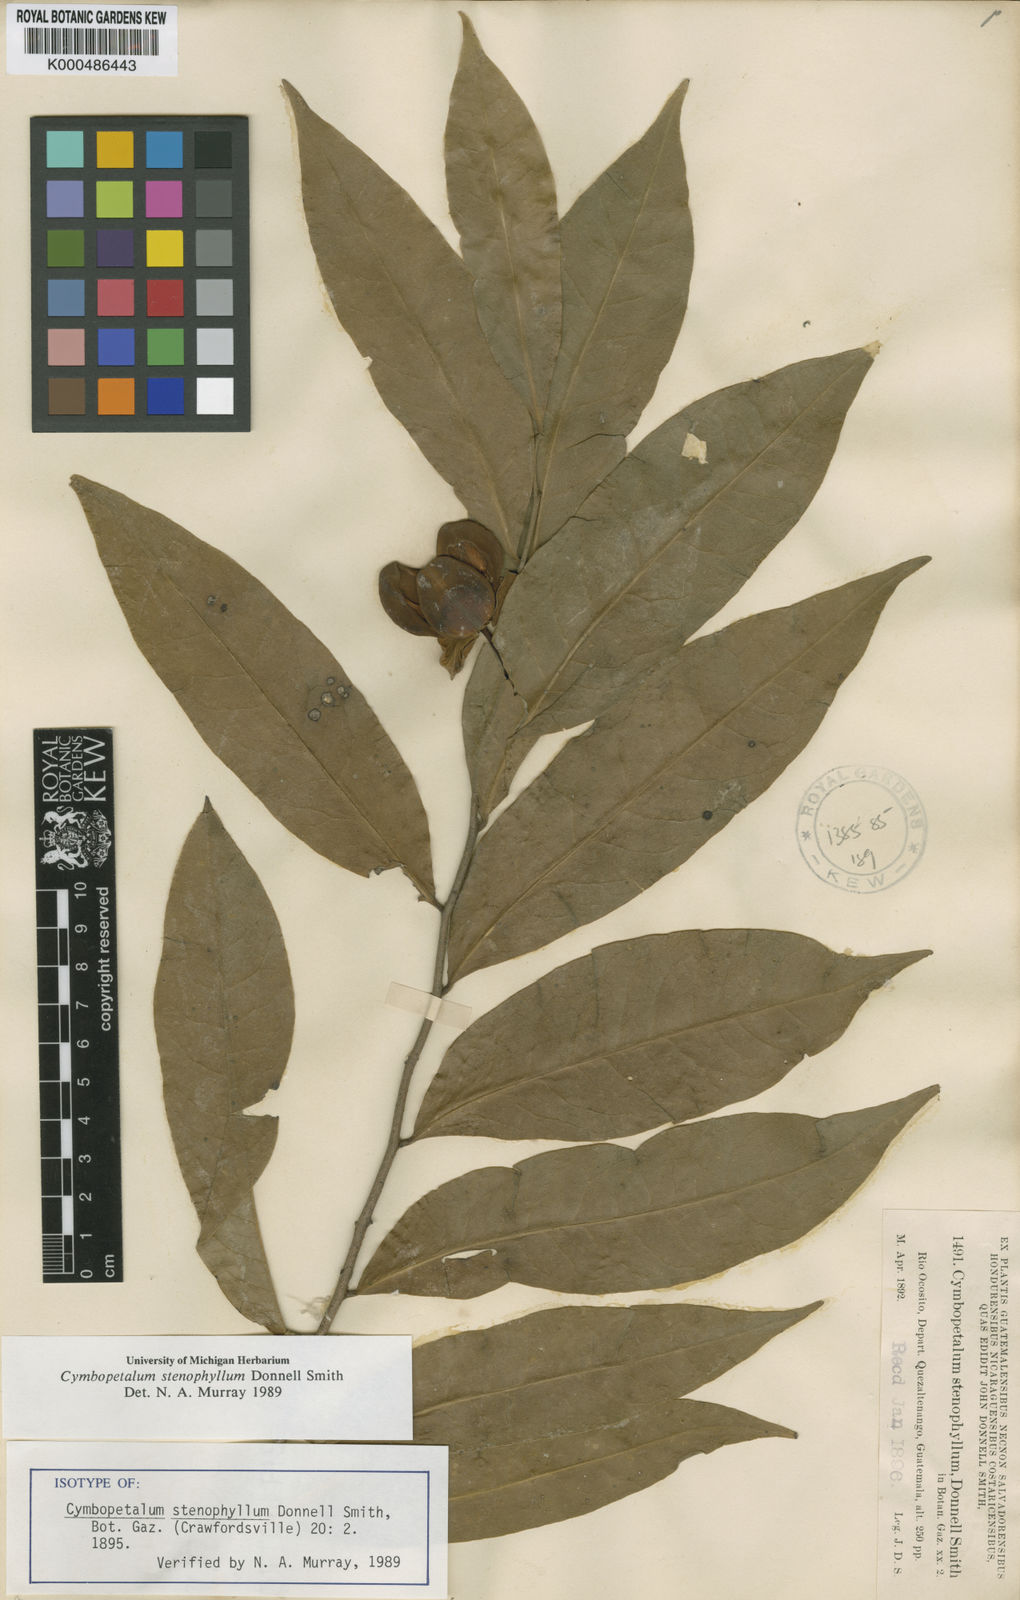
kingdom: Plantae
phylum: Tracheophyta
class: Magnoliopsida
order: Magnoliales
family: Annonaceae
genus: Cymbopetalum
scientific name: Cymbopetalum stenophyllum
